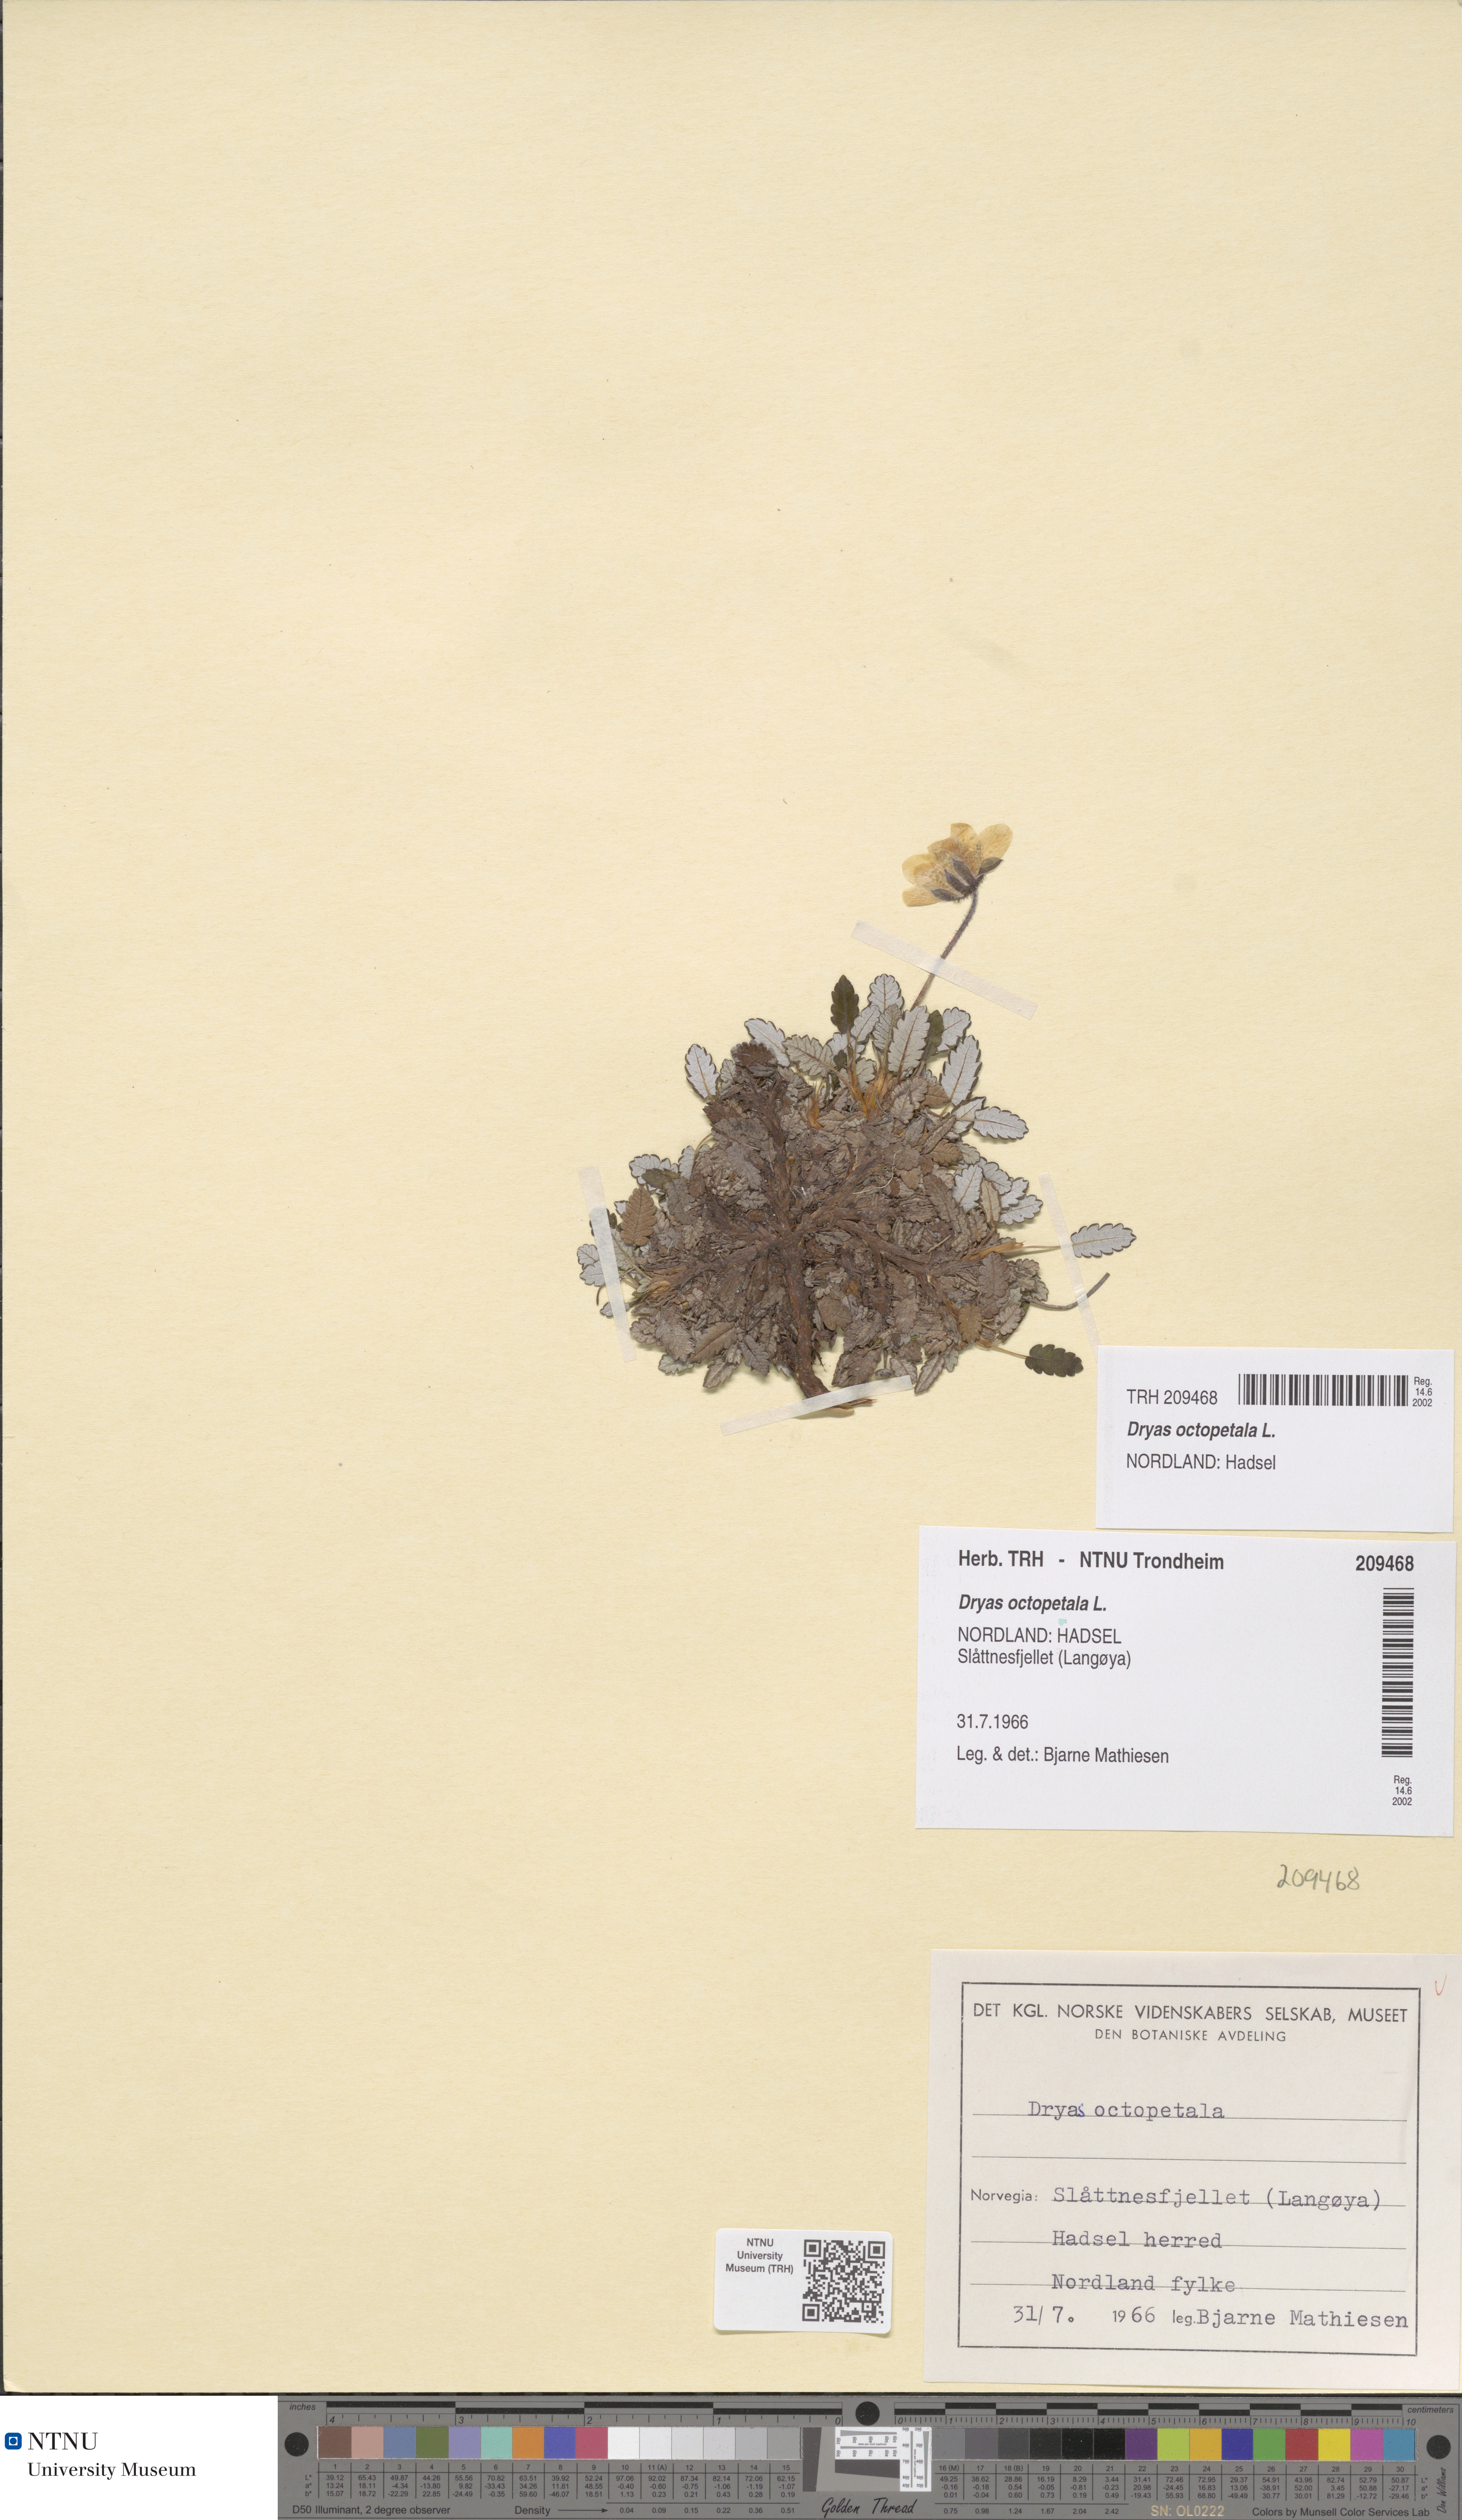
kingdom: Plantae
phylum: Tracheophyta
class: Magnoliopsida
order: Rosales
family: Rosaceae
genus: Dryas
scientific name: Dryas octopetala
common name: Eight-petal mountain-avens
